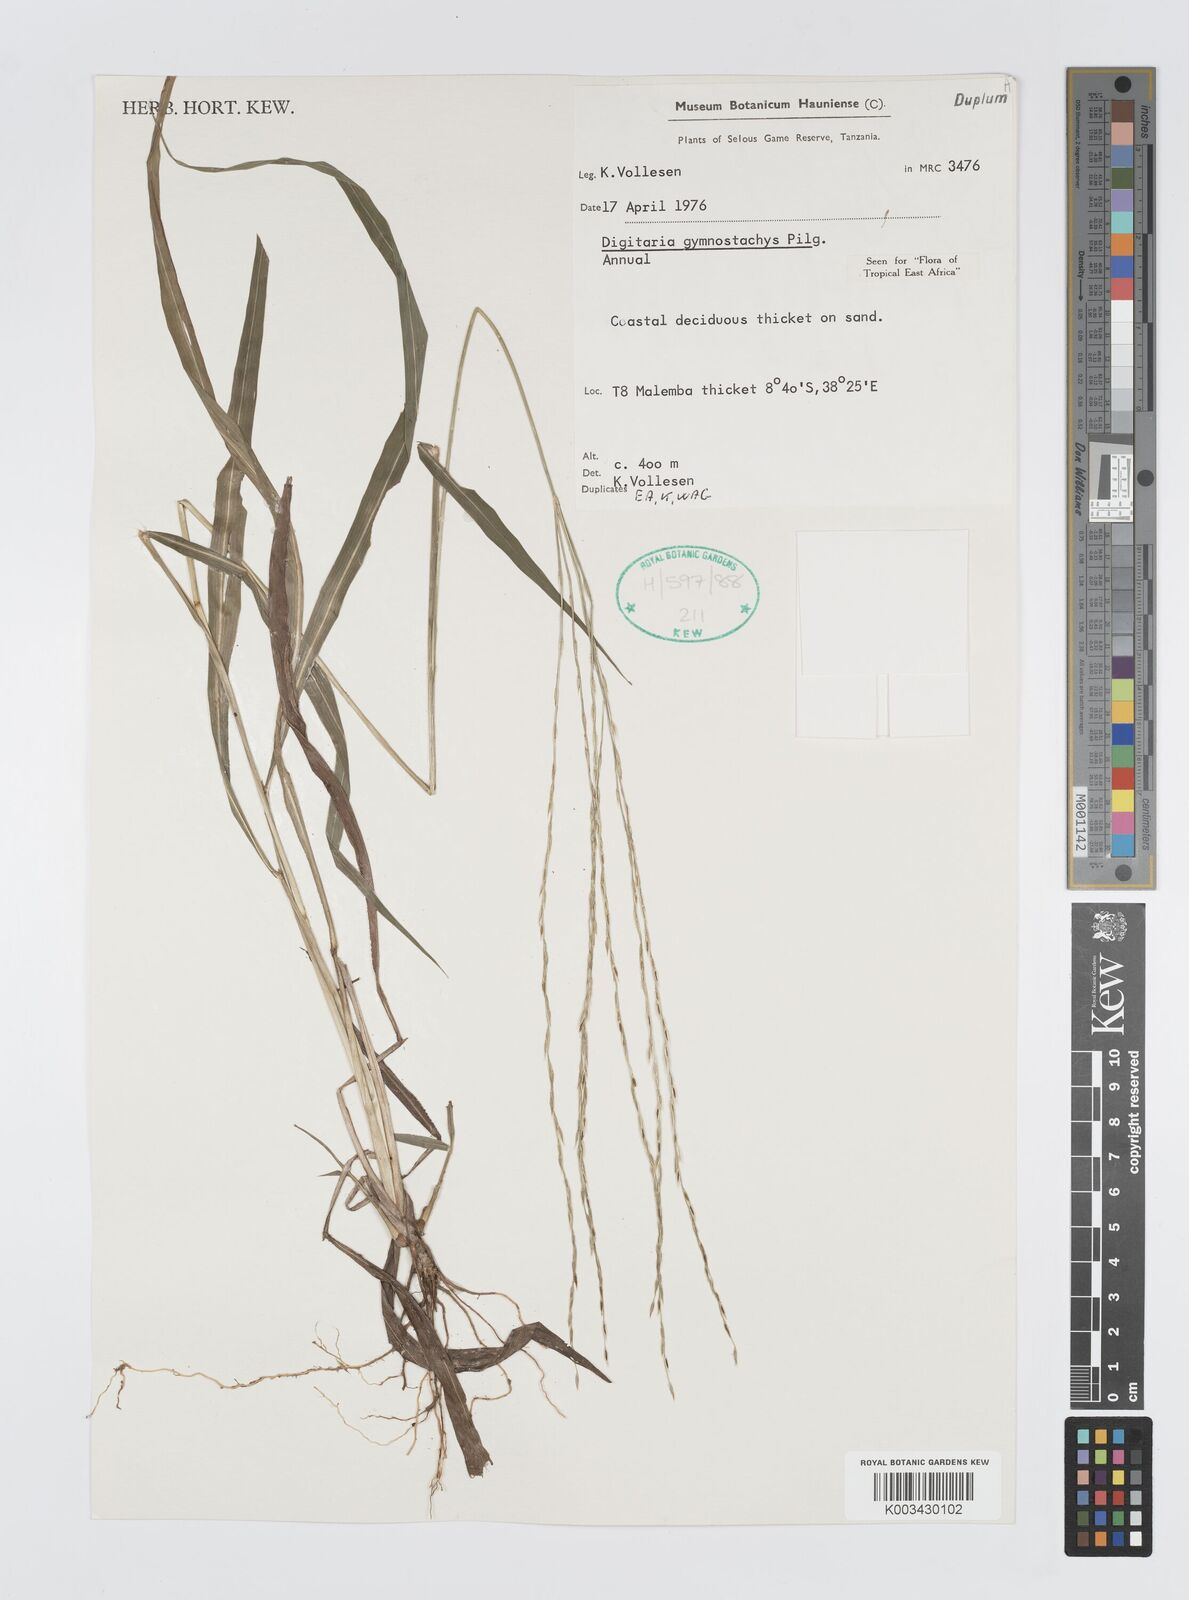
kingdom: Plantae
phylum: Tracheophyta
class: Liliopsida
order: Poales
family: Poaceae
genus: Digitaria
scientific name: Digitaria gymnostachys
